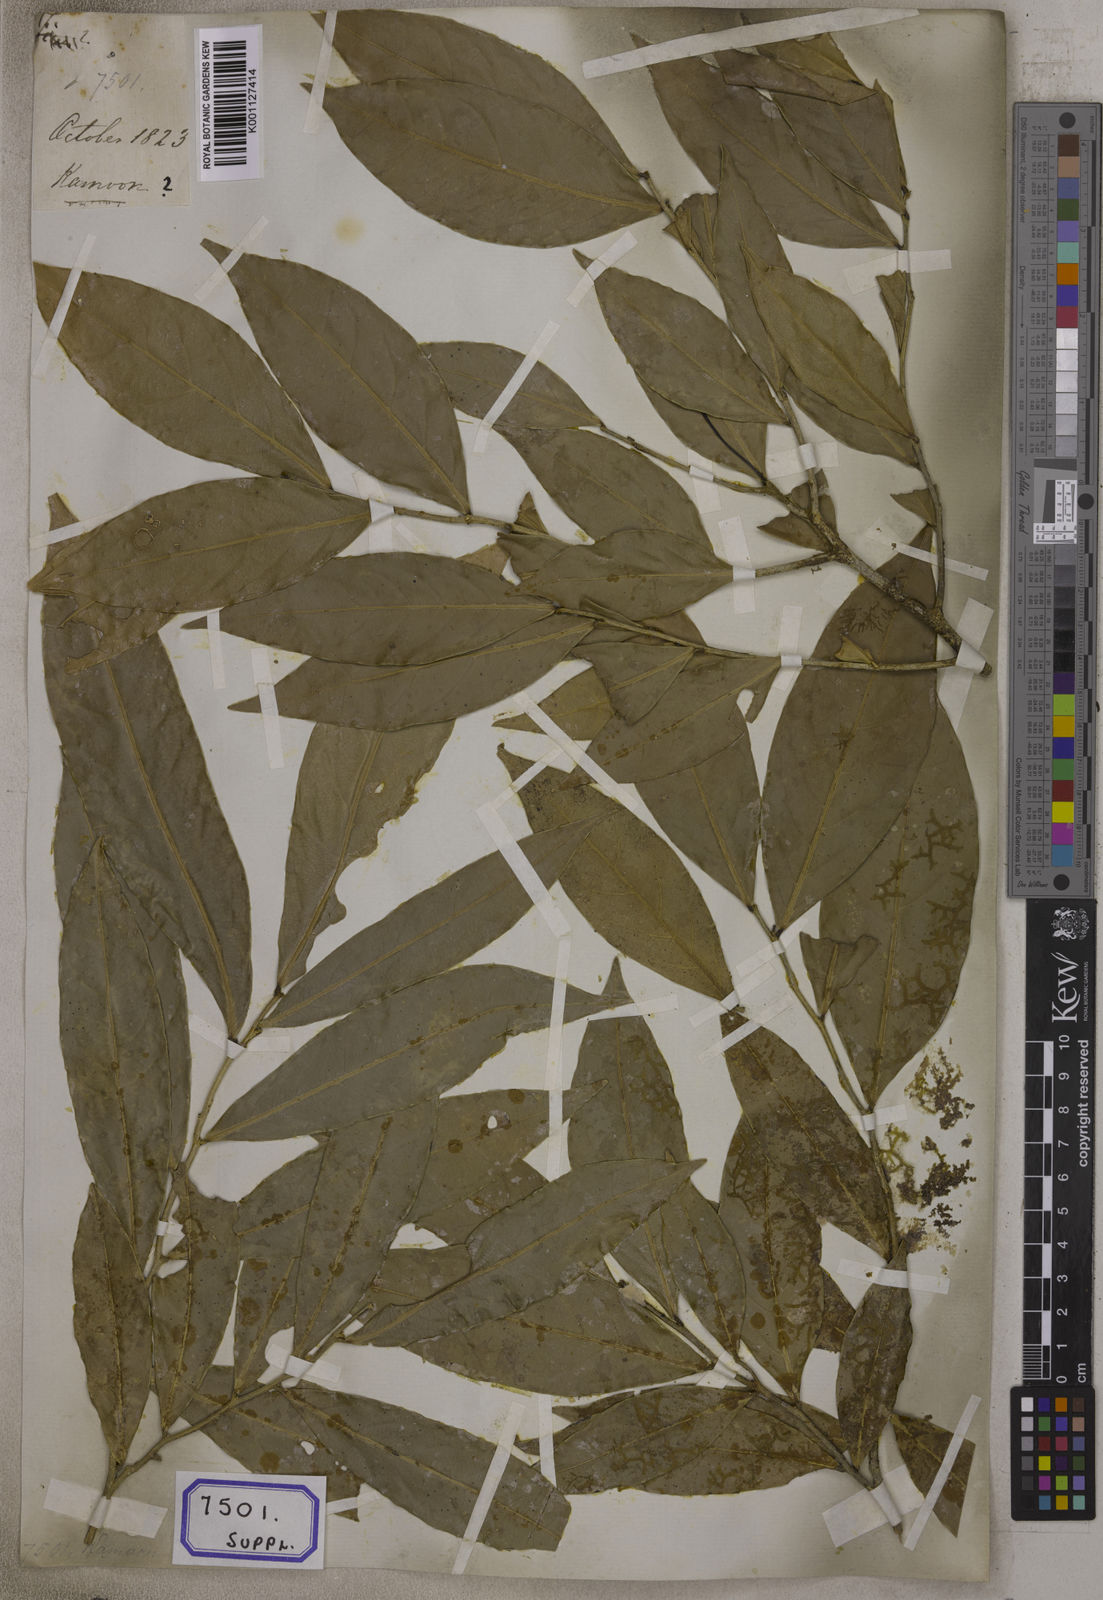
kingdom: Plantae
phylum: Tracheophyta
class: Magnoliopsida
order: Rosales
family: Urticaceae
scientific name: Urticaceae
